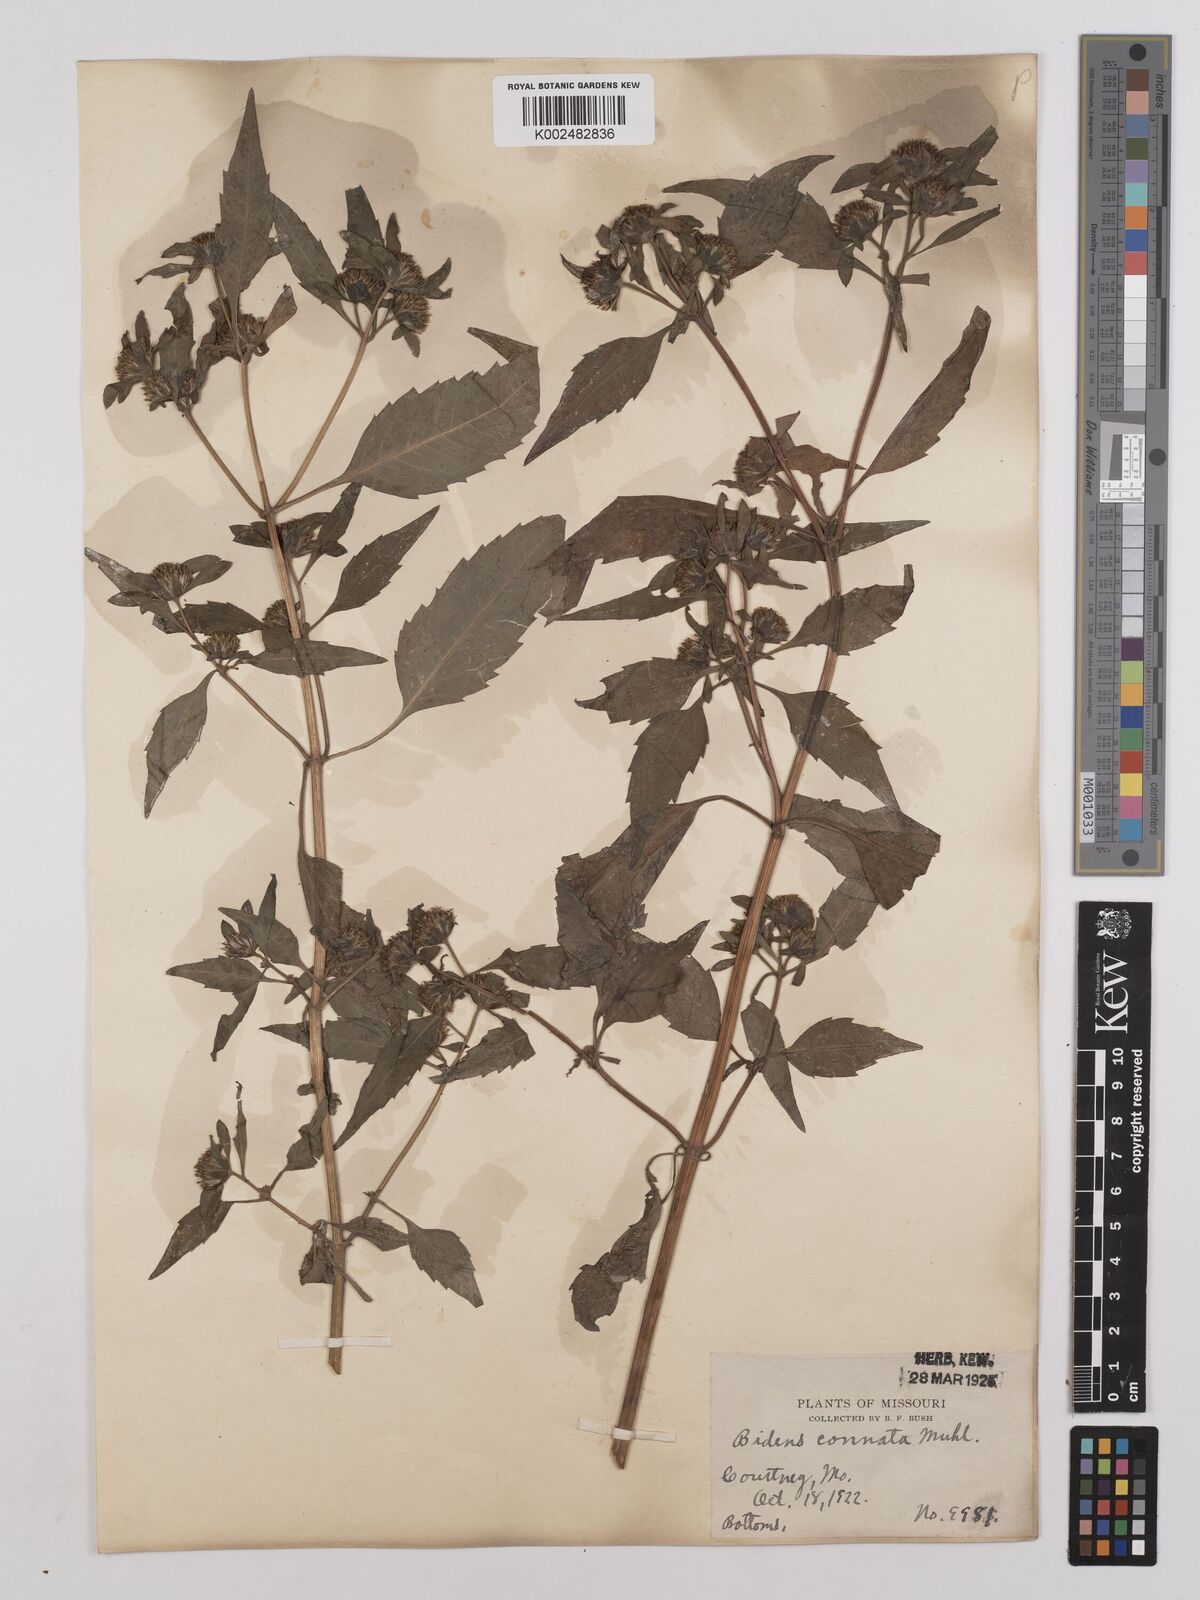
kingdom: Plantae
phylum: Tracheophyta
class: Magnoliopsida
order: Asterales
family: Asteraceae
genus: Bidens
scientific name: Bidens connata
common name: London bur-marigold
